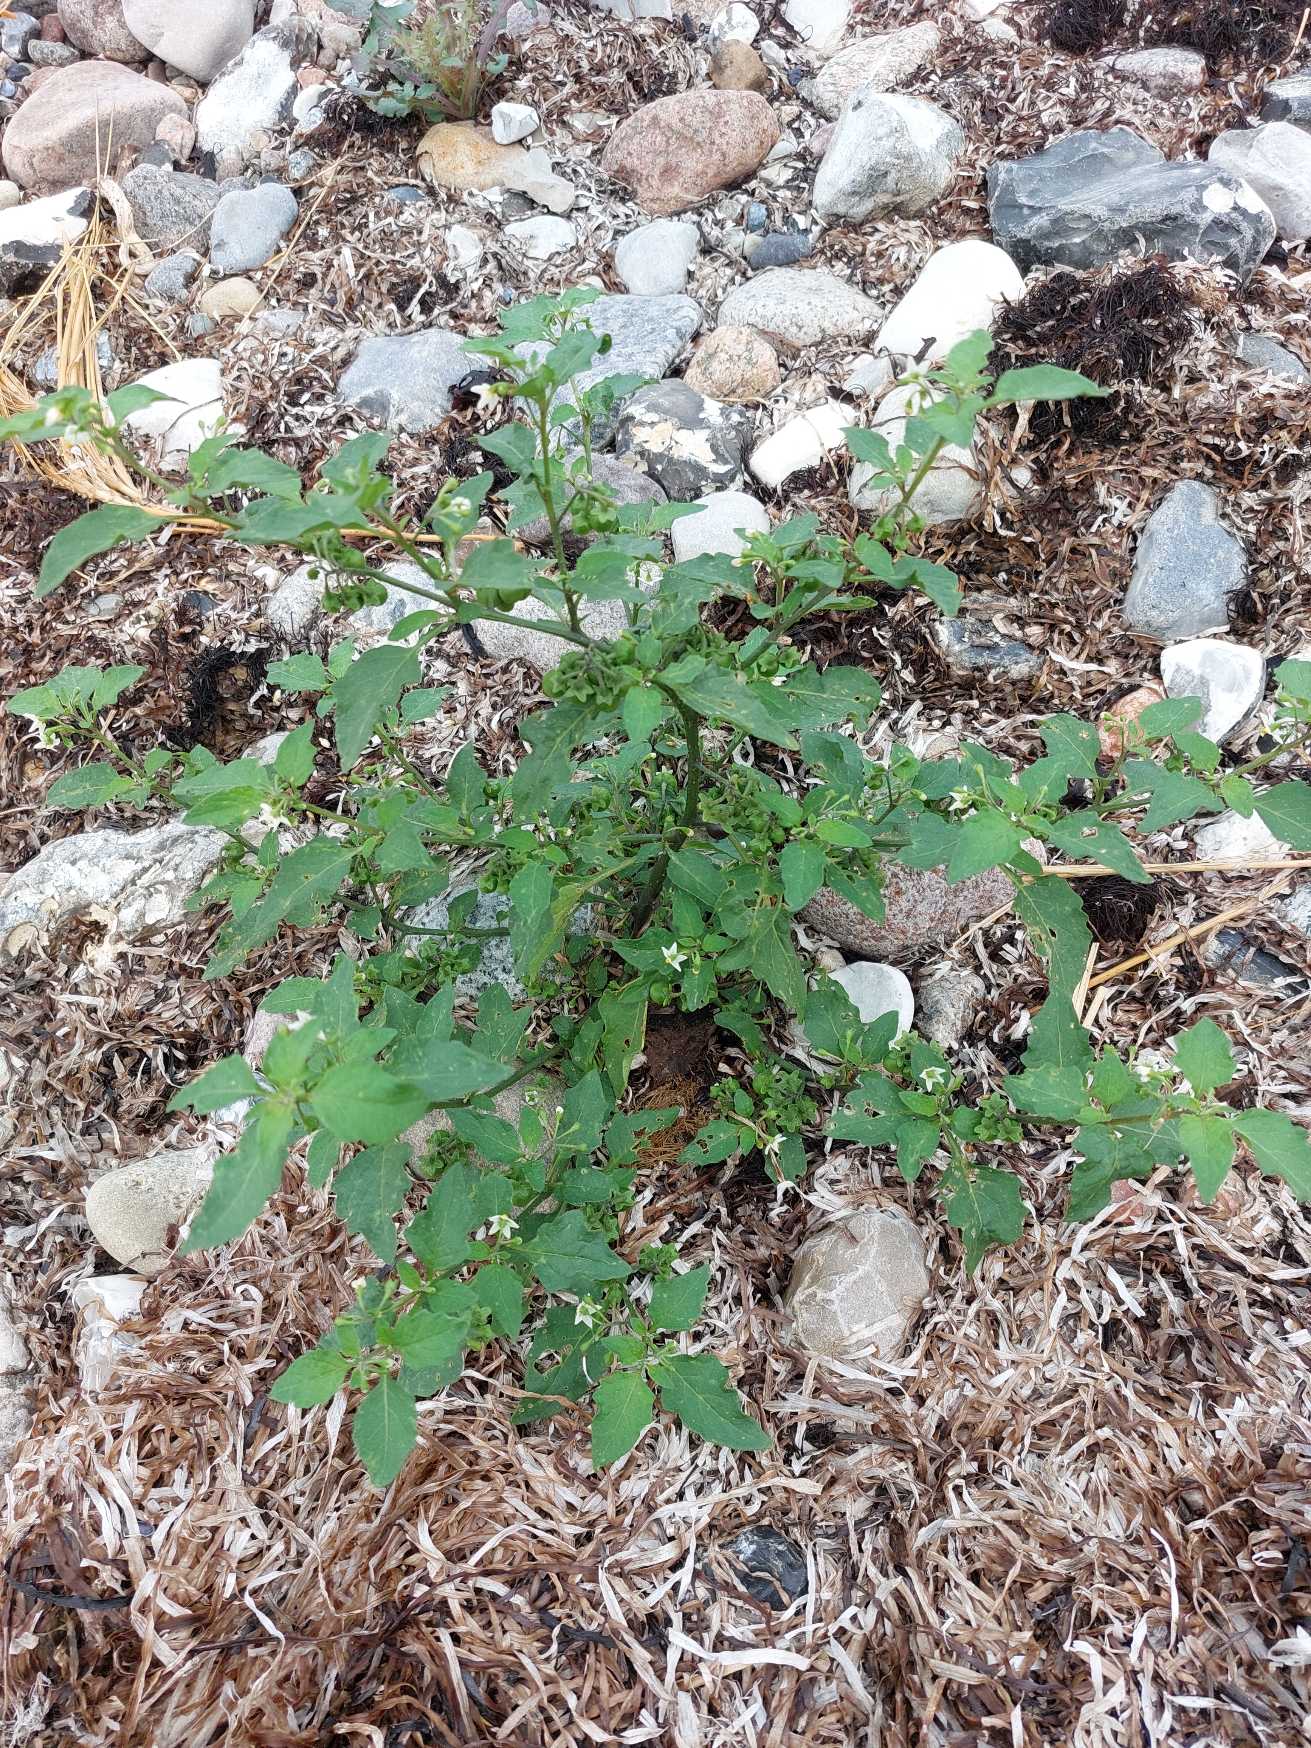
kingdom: Plantae
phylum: Tracheophyta
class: Magnoliopsida
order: Solanales
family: Solanaceae
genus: Solanum
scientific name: Solanum nigrum
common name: Sort natskygge
